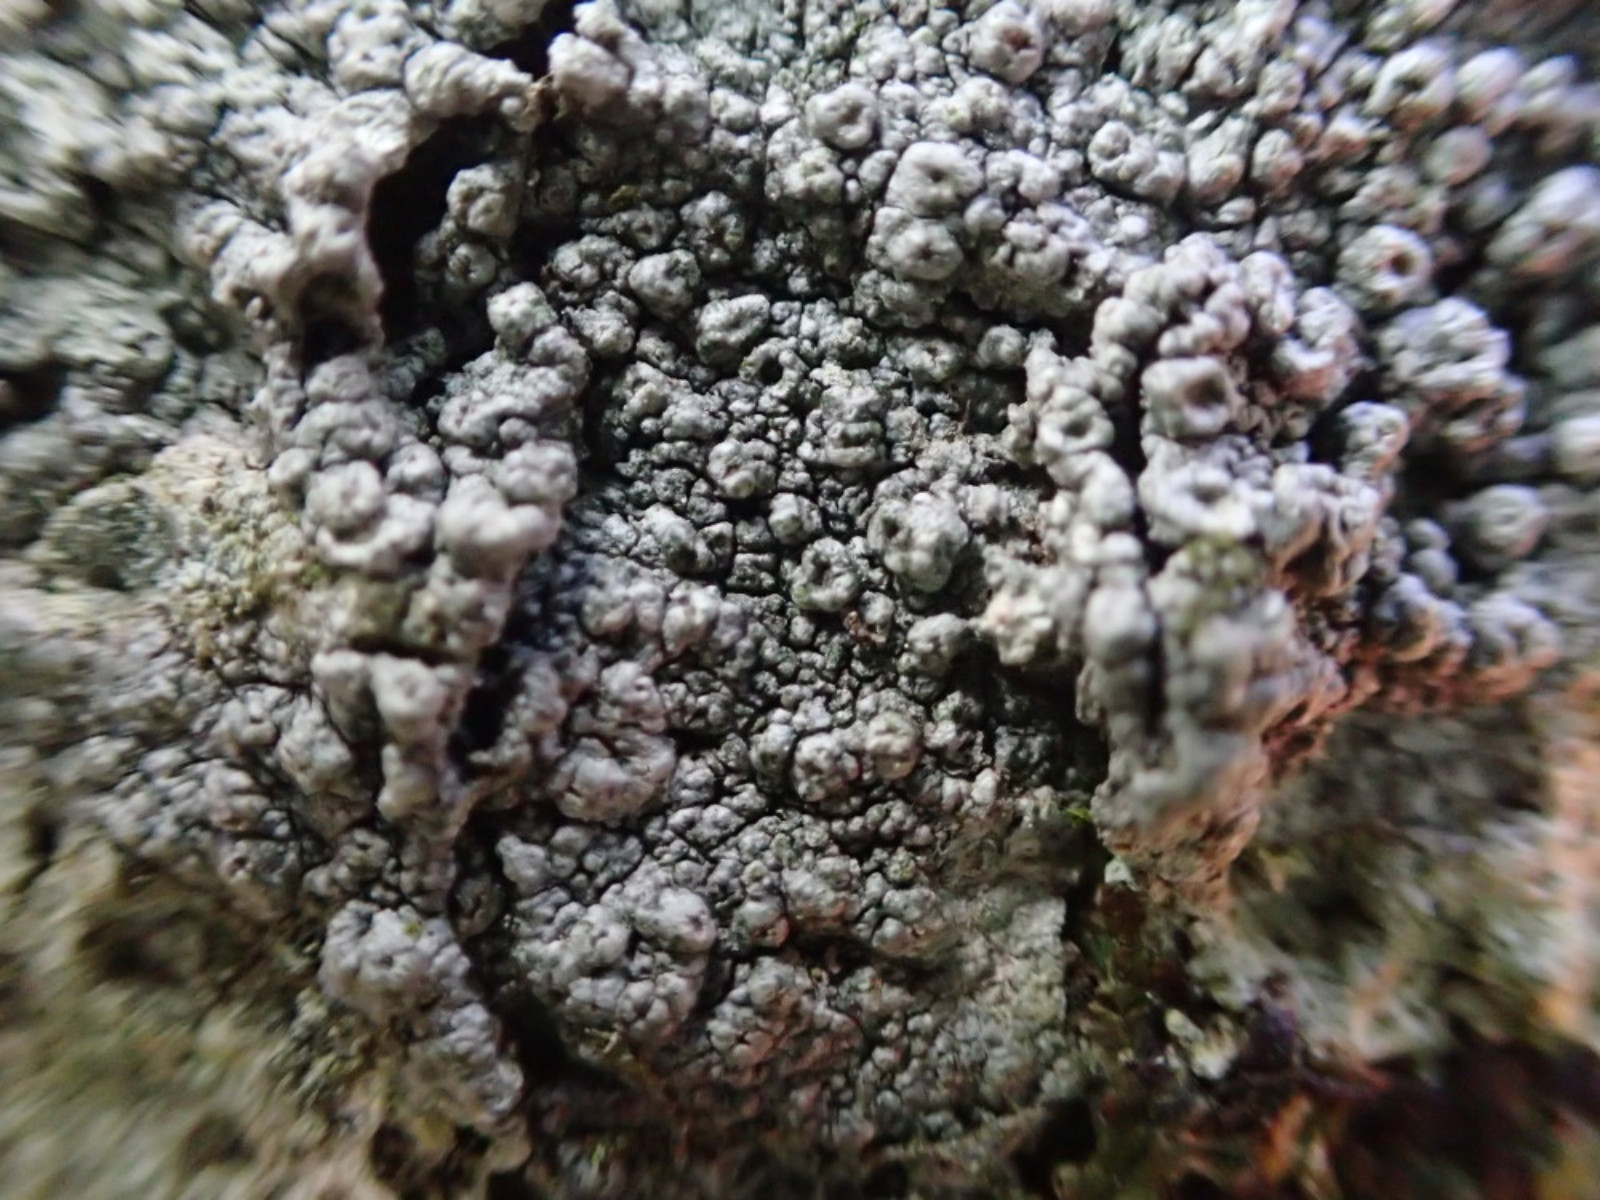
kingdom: Fungi
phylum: Ascomycota
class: Lecanoromycetes
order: Pertusariales
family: Pertusariaceae
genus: Pertusaria
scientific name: Pertusaria hymenea
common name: åben prikvortelav
